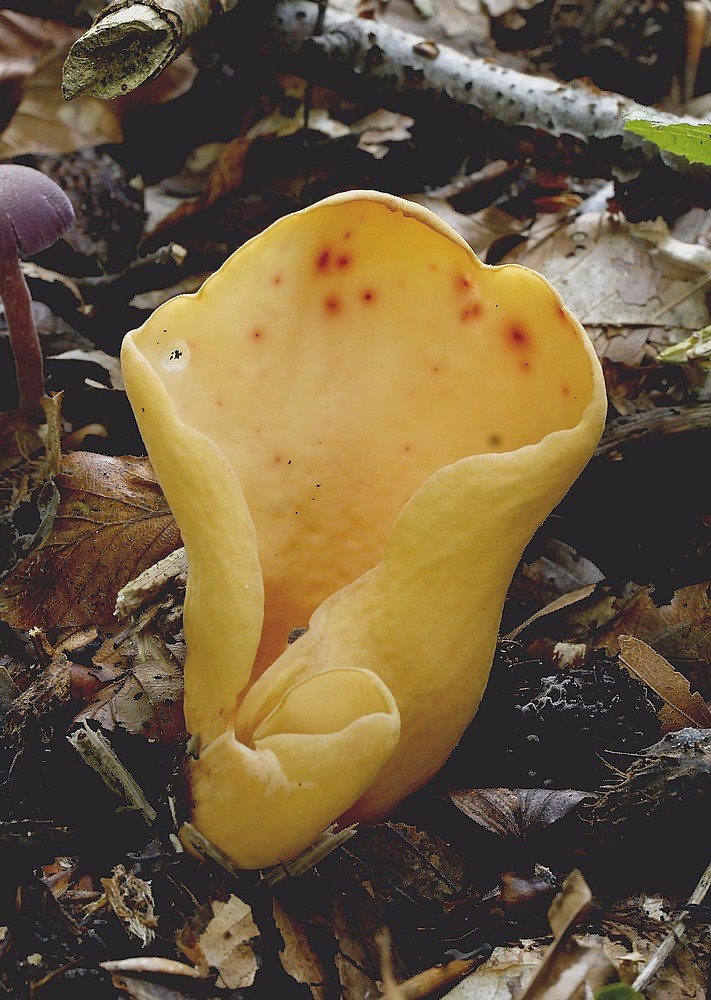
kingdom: Fungi
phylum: Ascomycota
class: Pezizomycetes
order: Pezizales
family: Otideaceae
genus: Otidea
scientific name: Otidea onotica
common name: æsel-ørebæger
